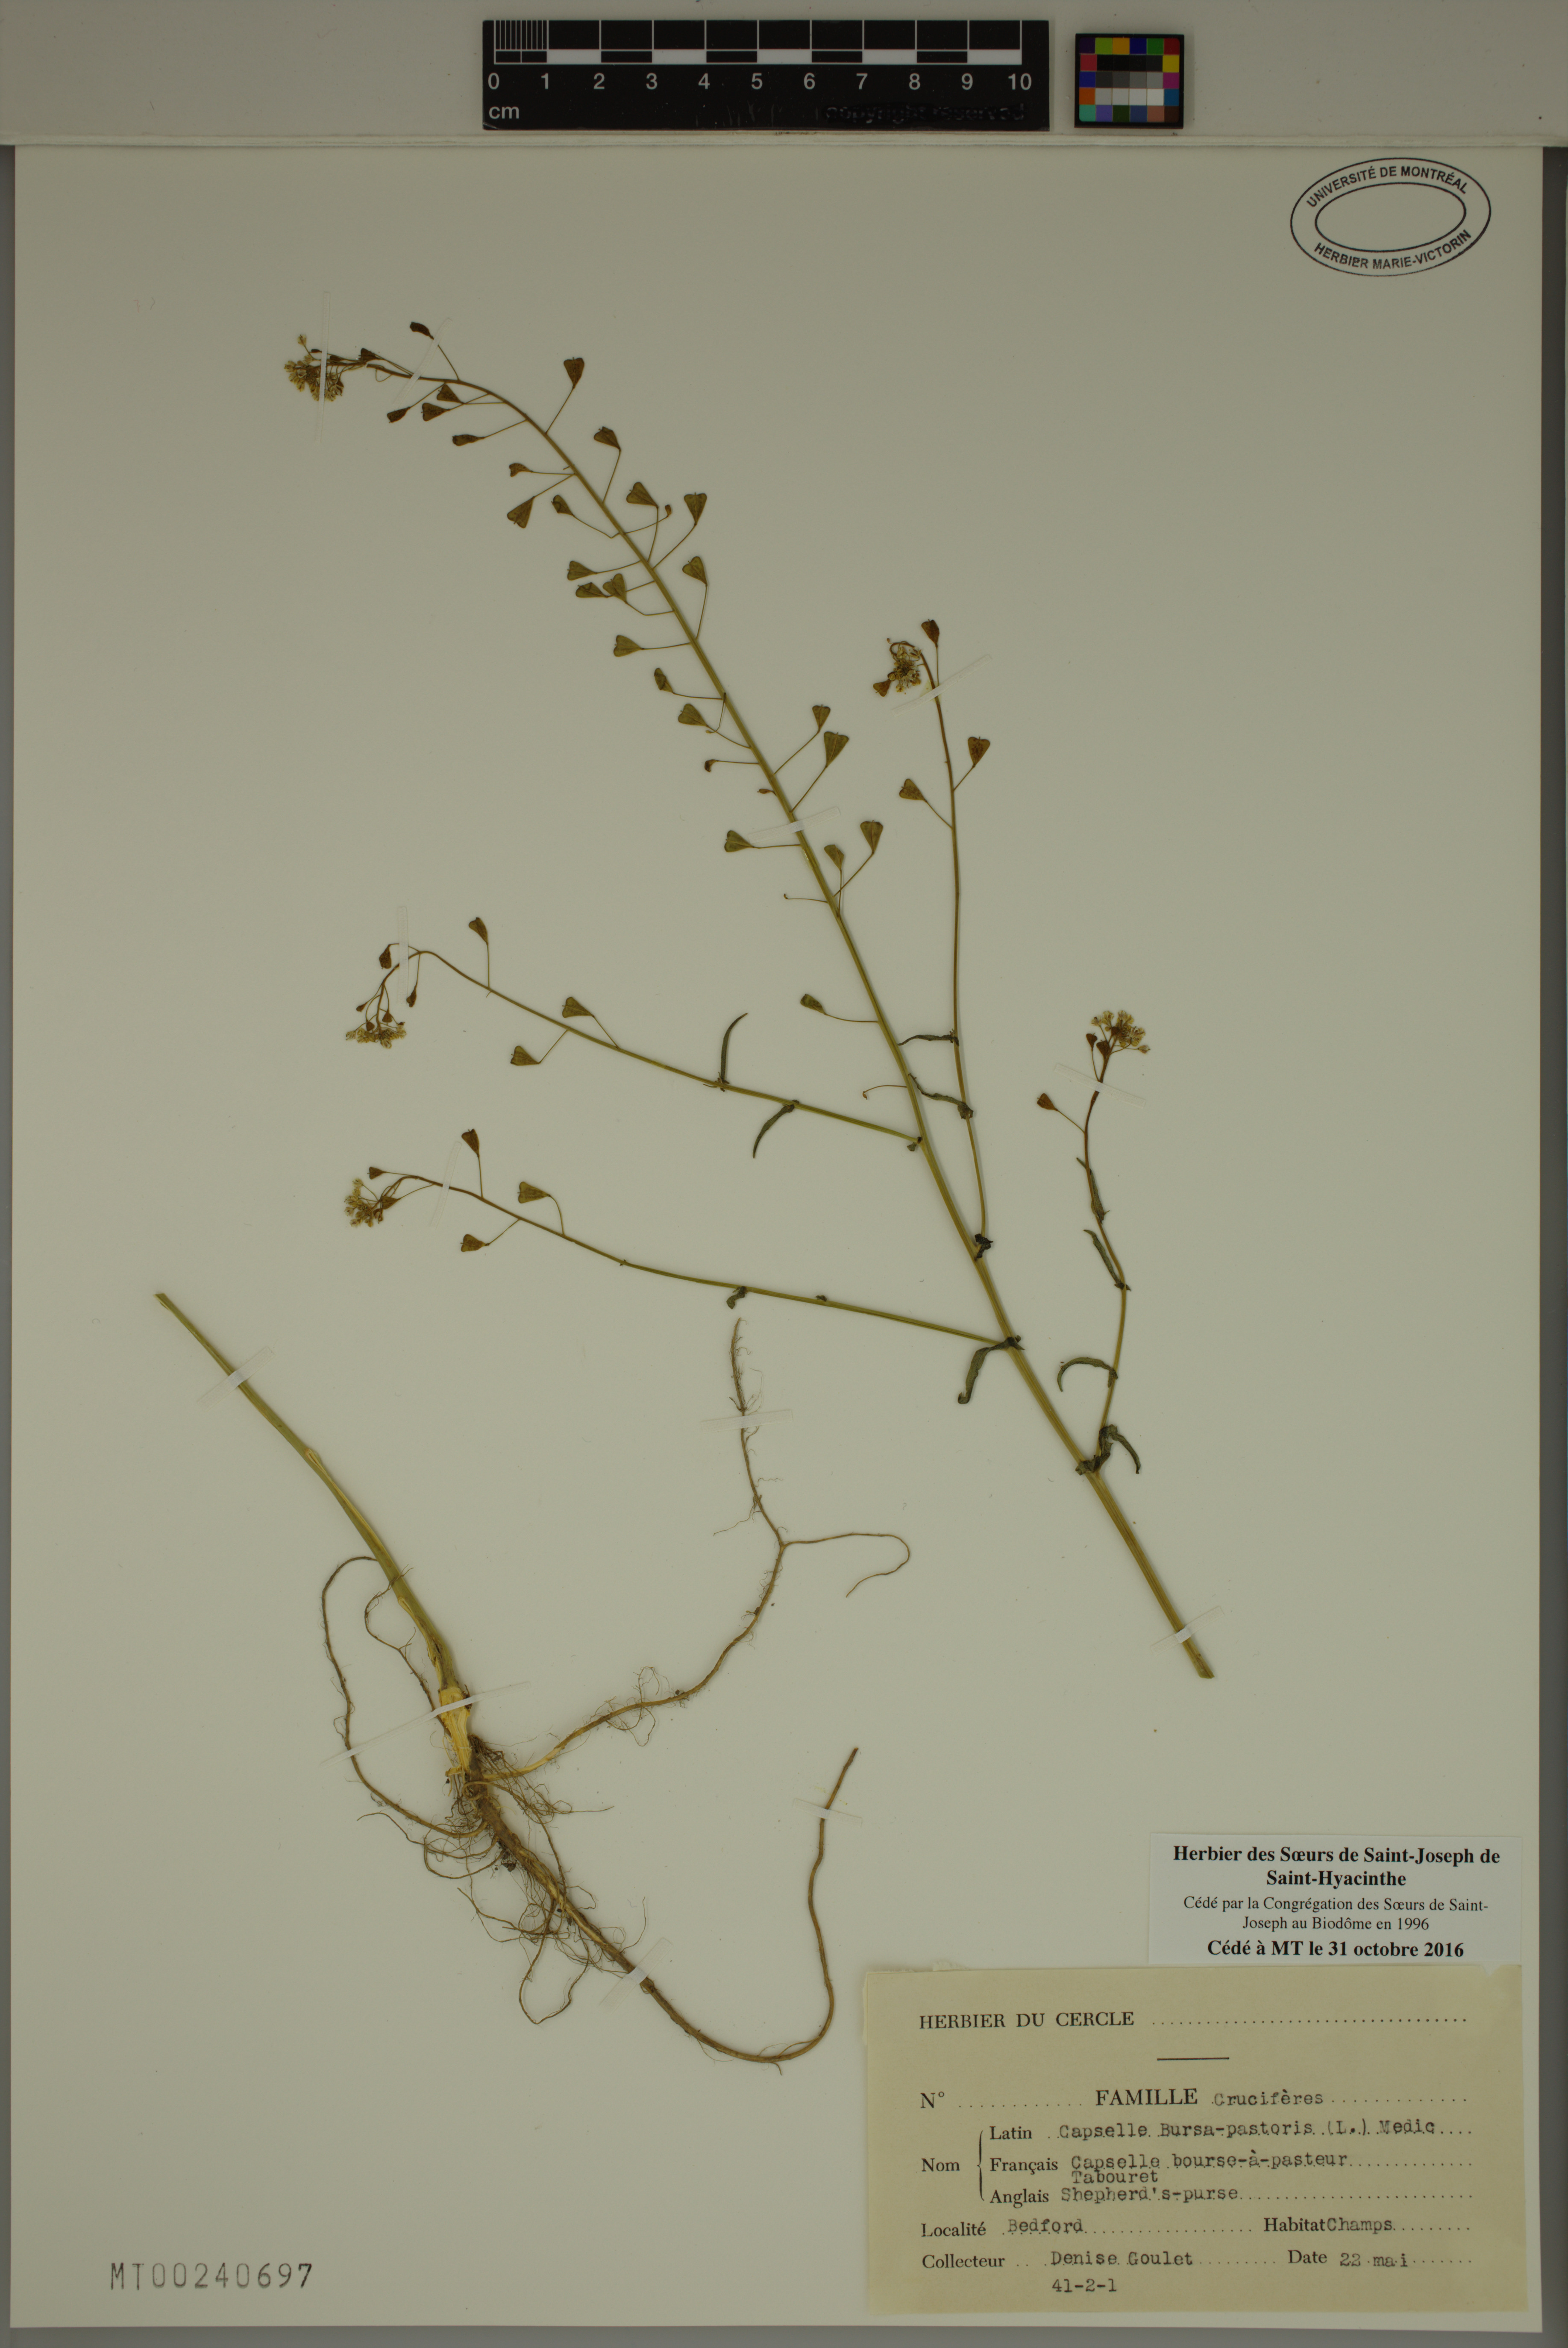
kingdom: Plantae
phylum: Tracheophyta
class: Magnoliopsida
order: Brassicales
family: Brassicaceae
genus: Capsella
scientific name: Capsella bursa-pastoris
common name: Shepherd's purse
